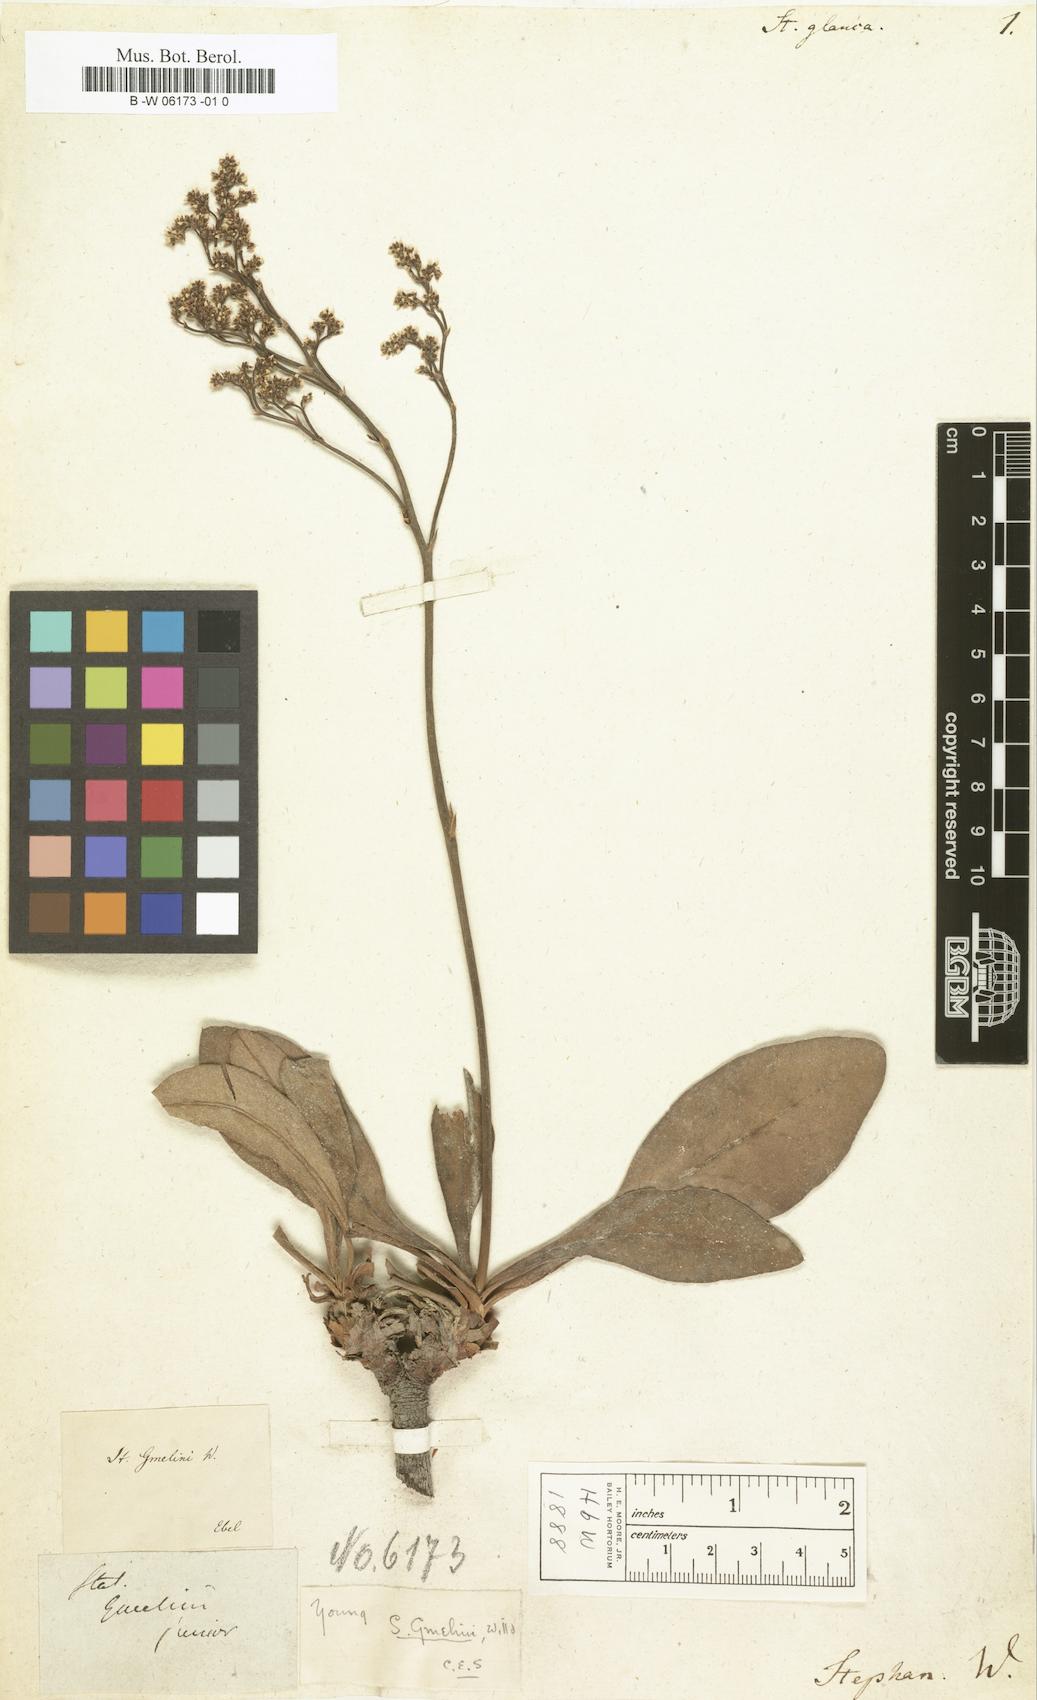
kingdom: Plantae
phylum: Tracheophyta
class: Magnoliopsida
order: Caryophyllales
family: Plumbaginaceae
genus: Limonium
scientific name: Limonium gmelini
